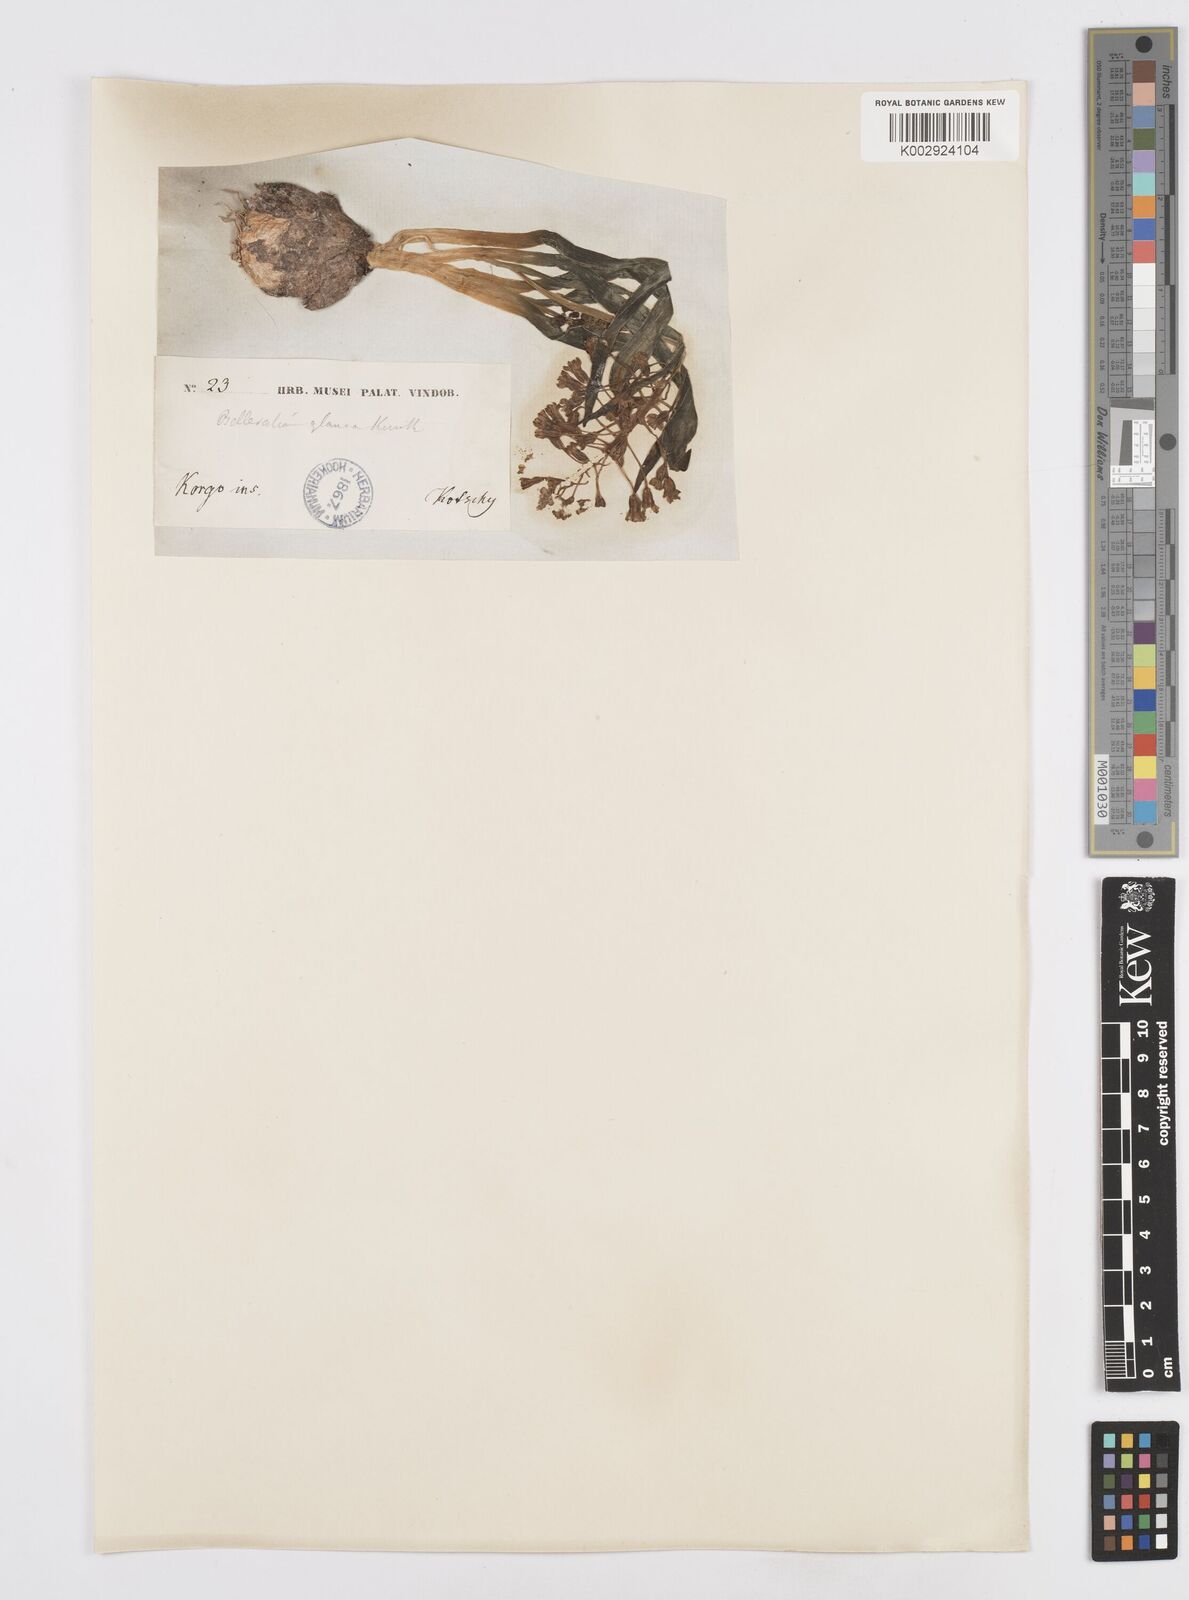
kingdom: Plantae
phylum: Tracheophyta
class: Liliopsida
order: Asparagales
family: Asparagaceae
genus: Bellevalia
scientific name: Bellevalia ciliata
